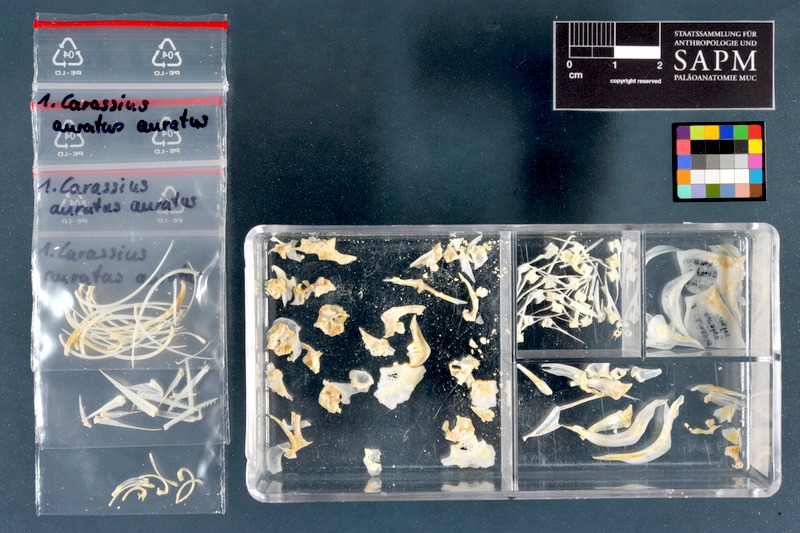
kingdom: Animalia
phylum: Chordata
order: Cypriniformes
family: Cyprinidae
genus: Carassius
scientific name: Carassius auratus
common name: Goldfish
